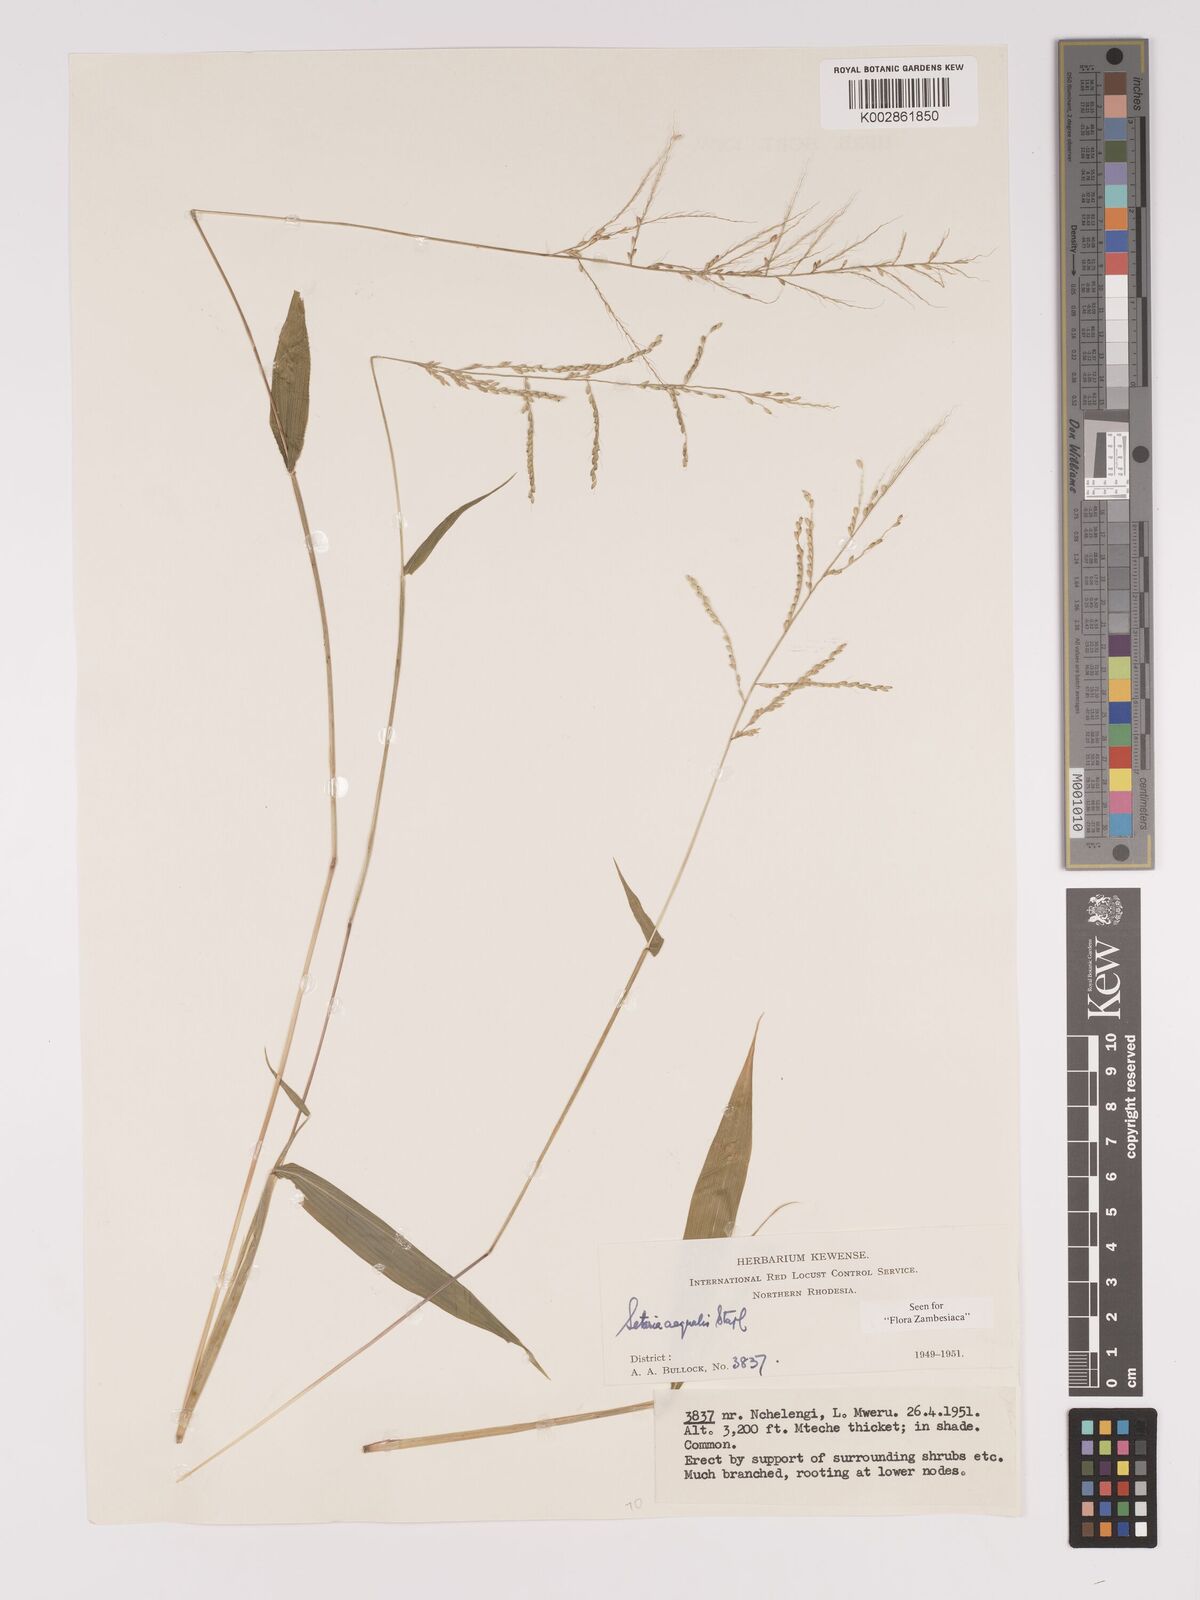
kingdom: Plantae
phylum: Tracheophyta
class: Liliopsida
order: Poales
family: Poaceae
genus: Setaria
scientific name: Setaria homonyma
